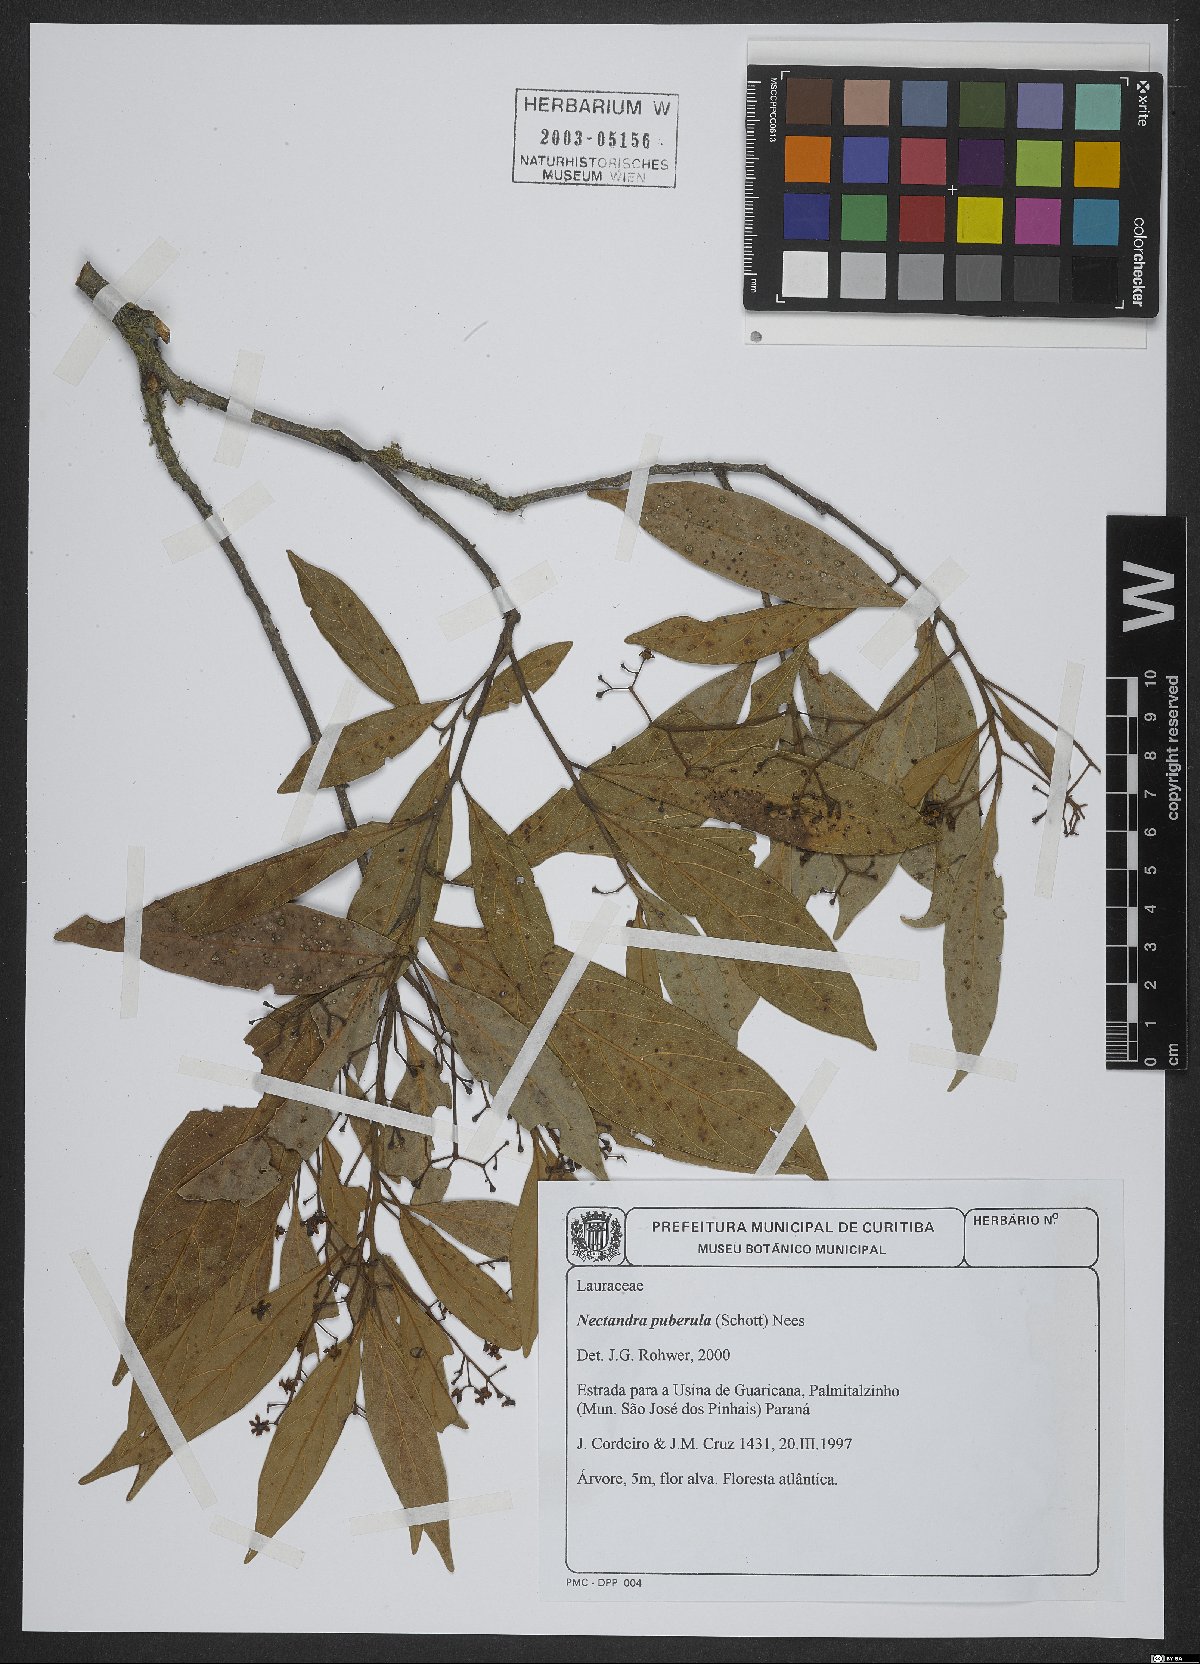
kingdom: Plantae
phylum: Tracheophyta
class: Magnoliopsida
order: Laurales
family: Lauraceae
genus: Nectandra
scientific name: Nectandra puberula
